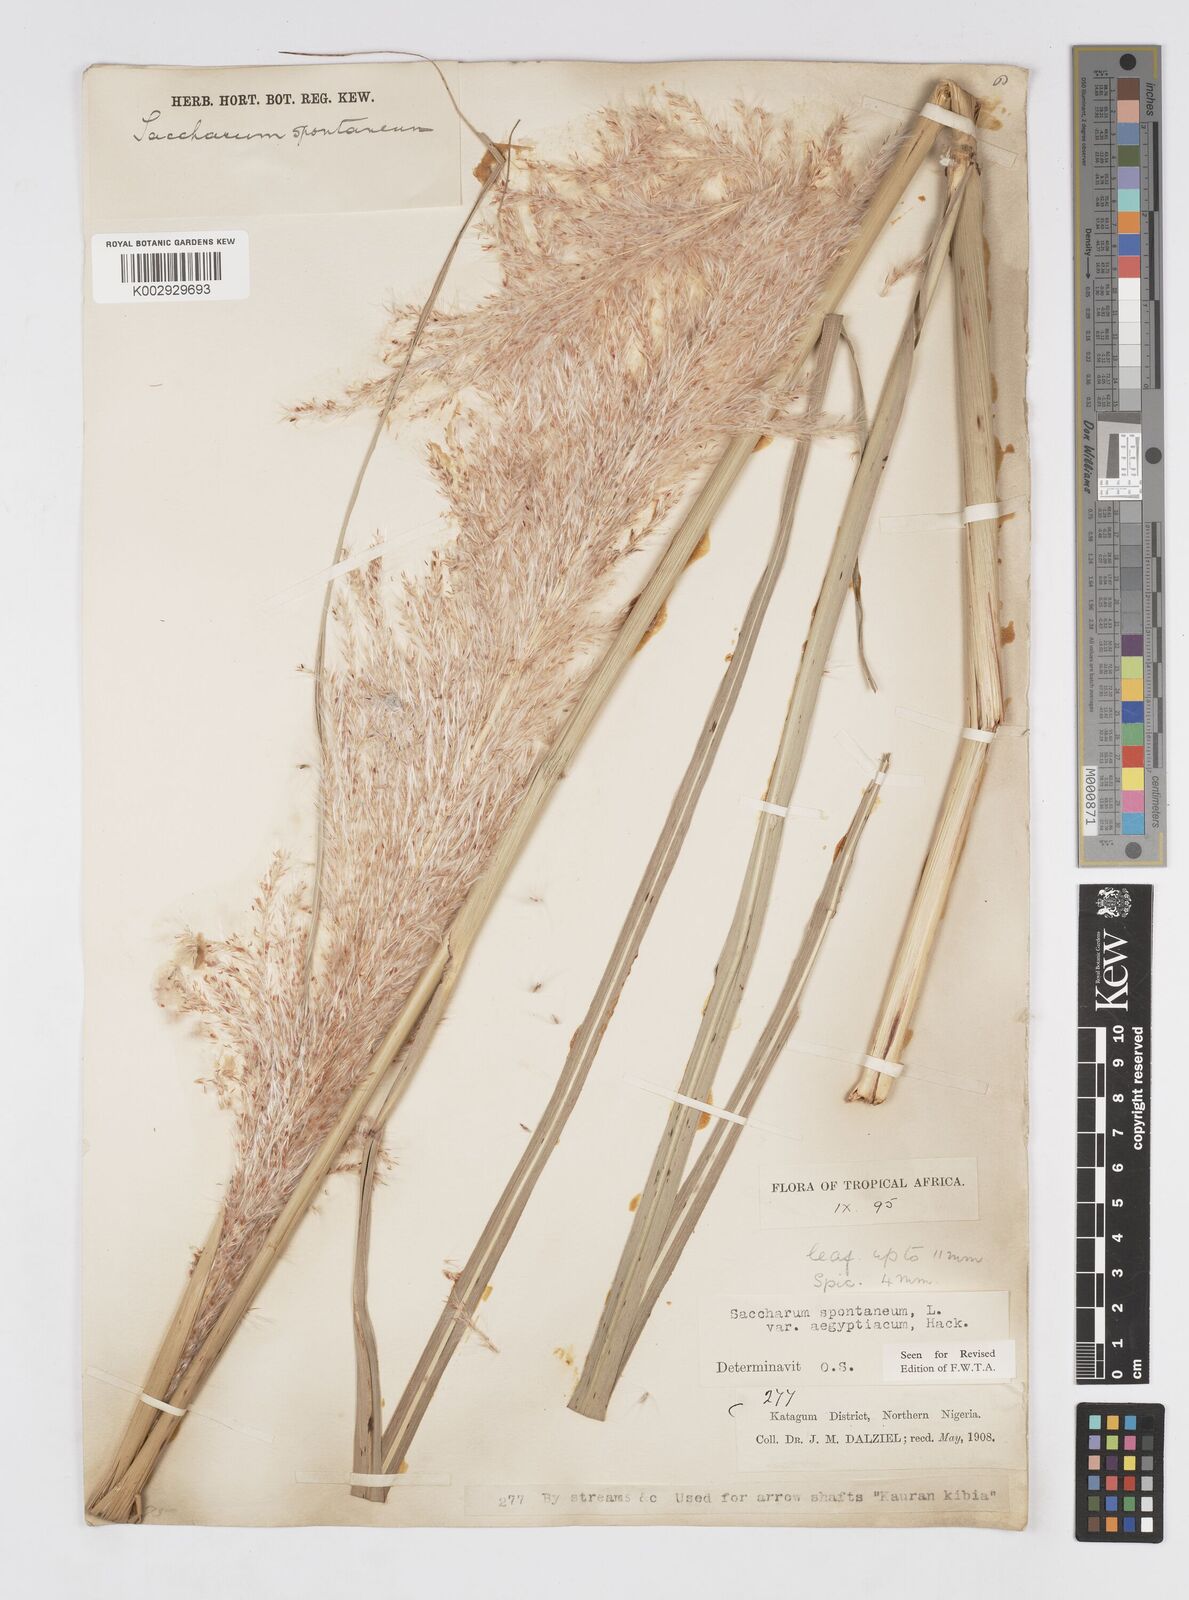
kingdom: Plantae
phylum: Tracheophyta
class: Liliopsida
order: Poales
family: Poaceae
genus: Saccharum
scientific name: Saccharum spontaneum
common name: Wild sugarcane
